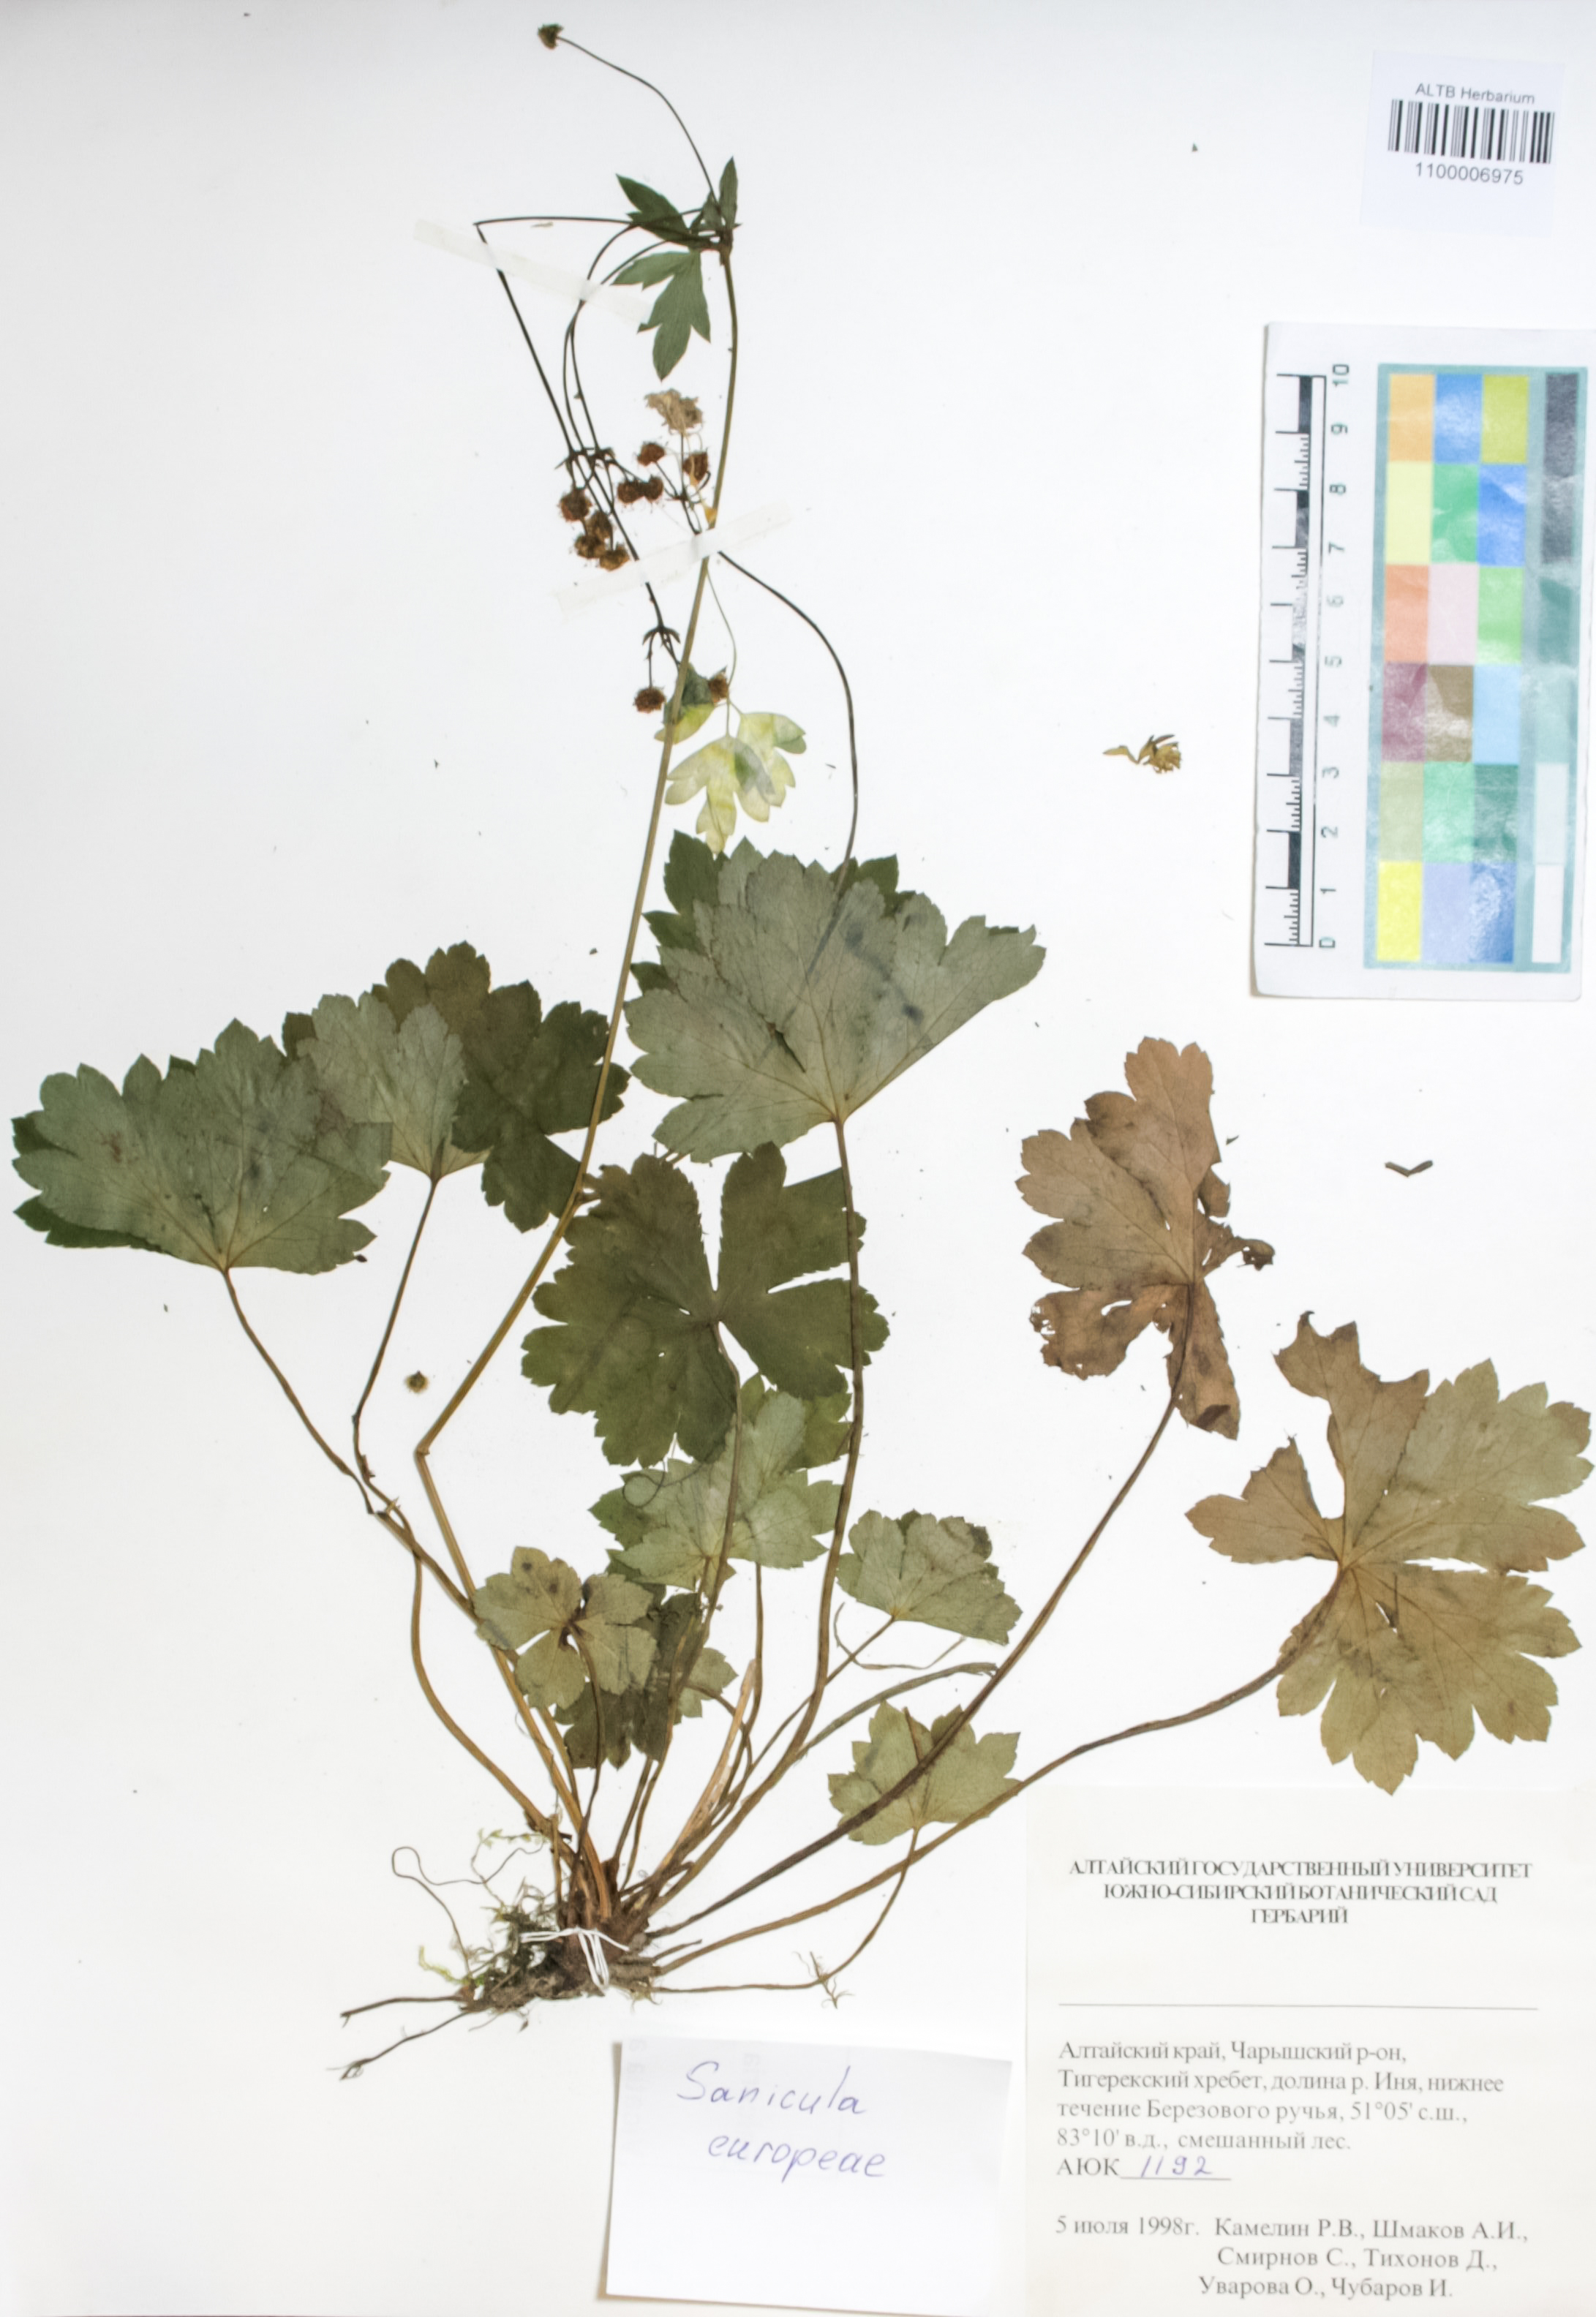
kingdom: Plantae
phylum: Tracheophyta
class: Magnoliopsida
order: Apiales
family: Apiaceae
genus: Sanicula
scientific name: Sanicula europaea
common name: Sanicle
